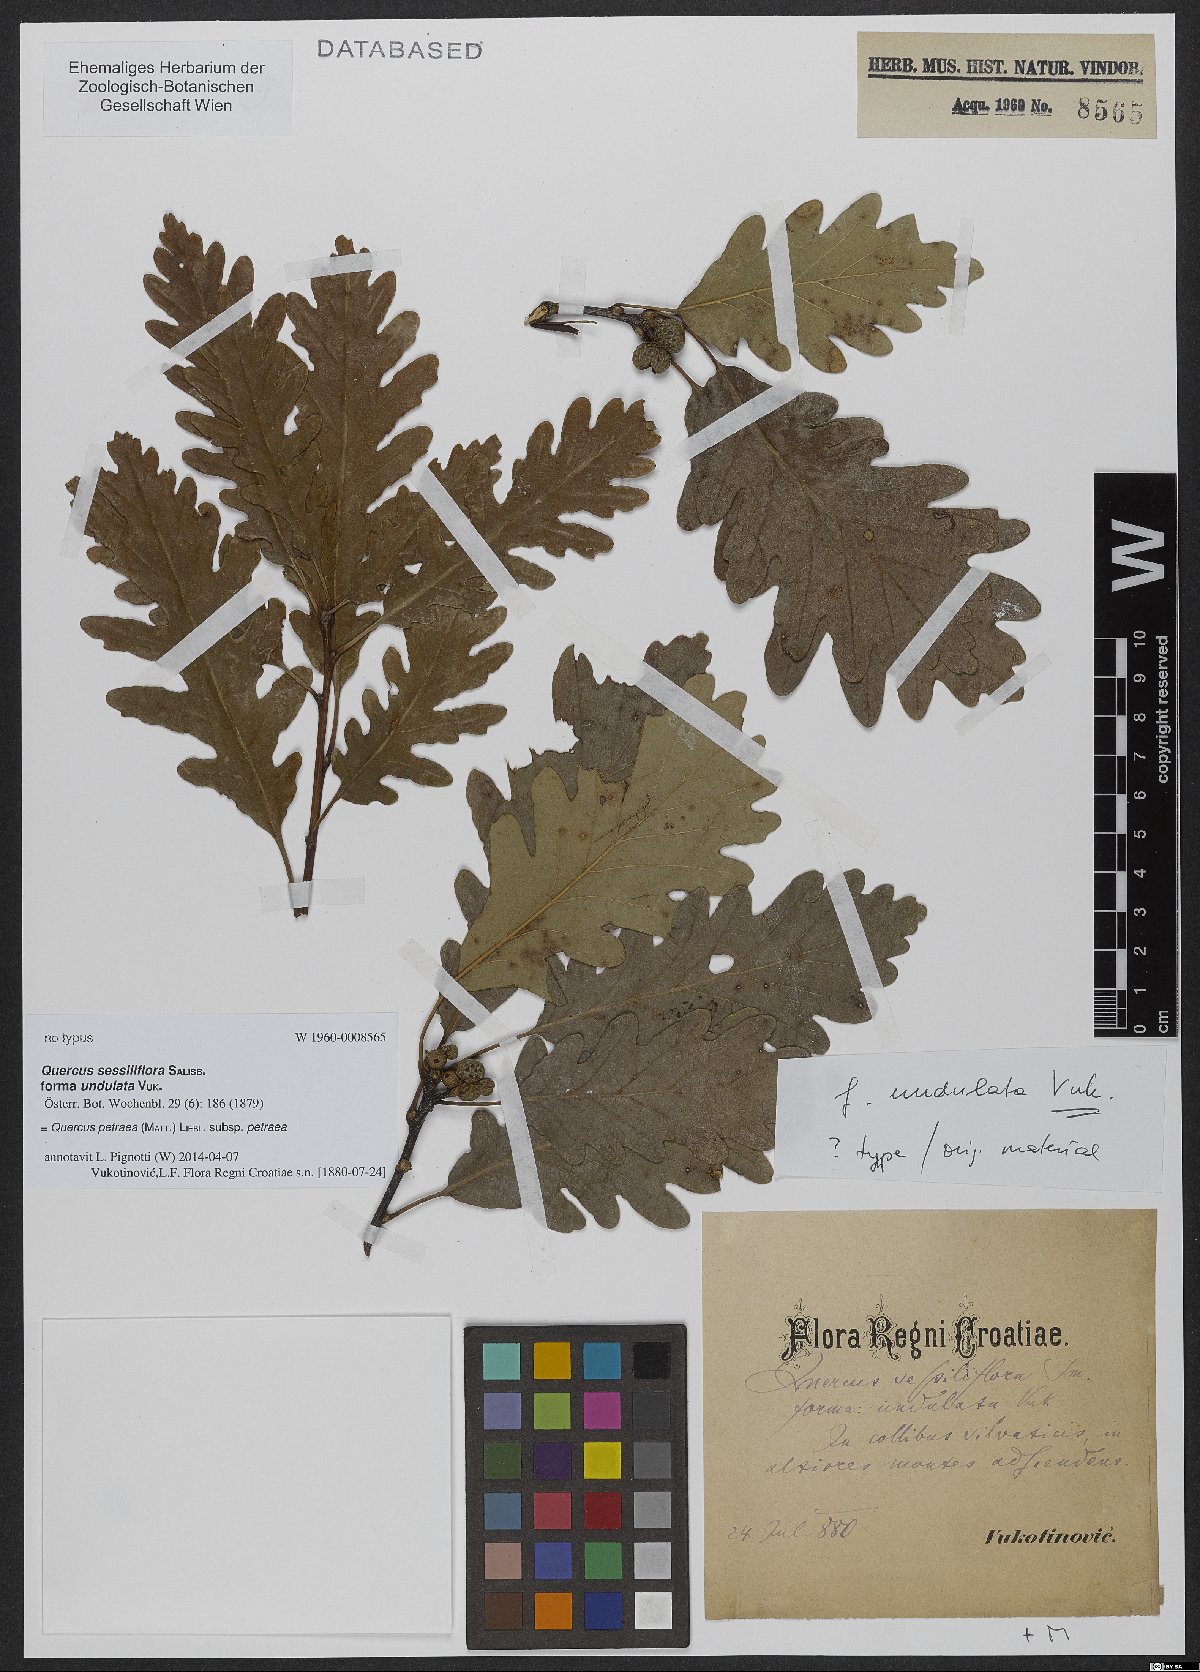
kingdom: Plantae
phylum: Tracheophyta
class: Magnoliopsida
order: Fagales
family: Fagaceae
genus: Quercus
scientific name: Quercus petraea
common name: Sessile oak
